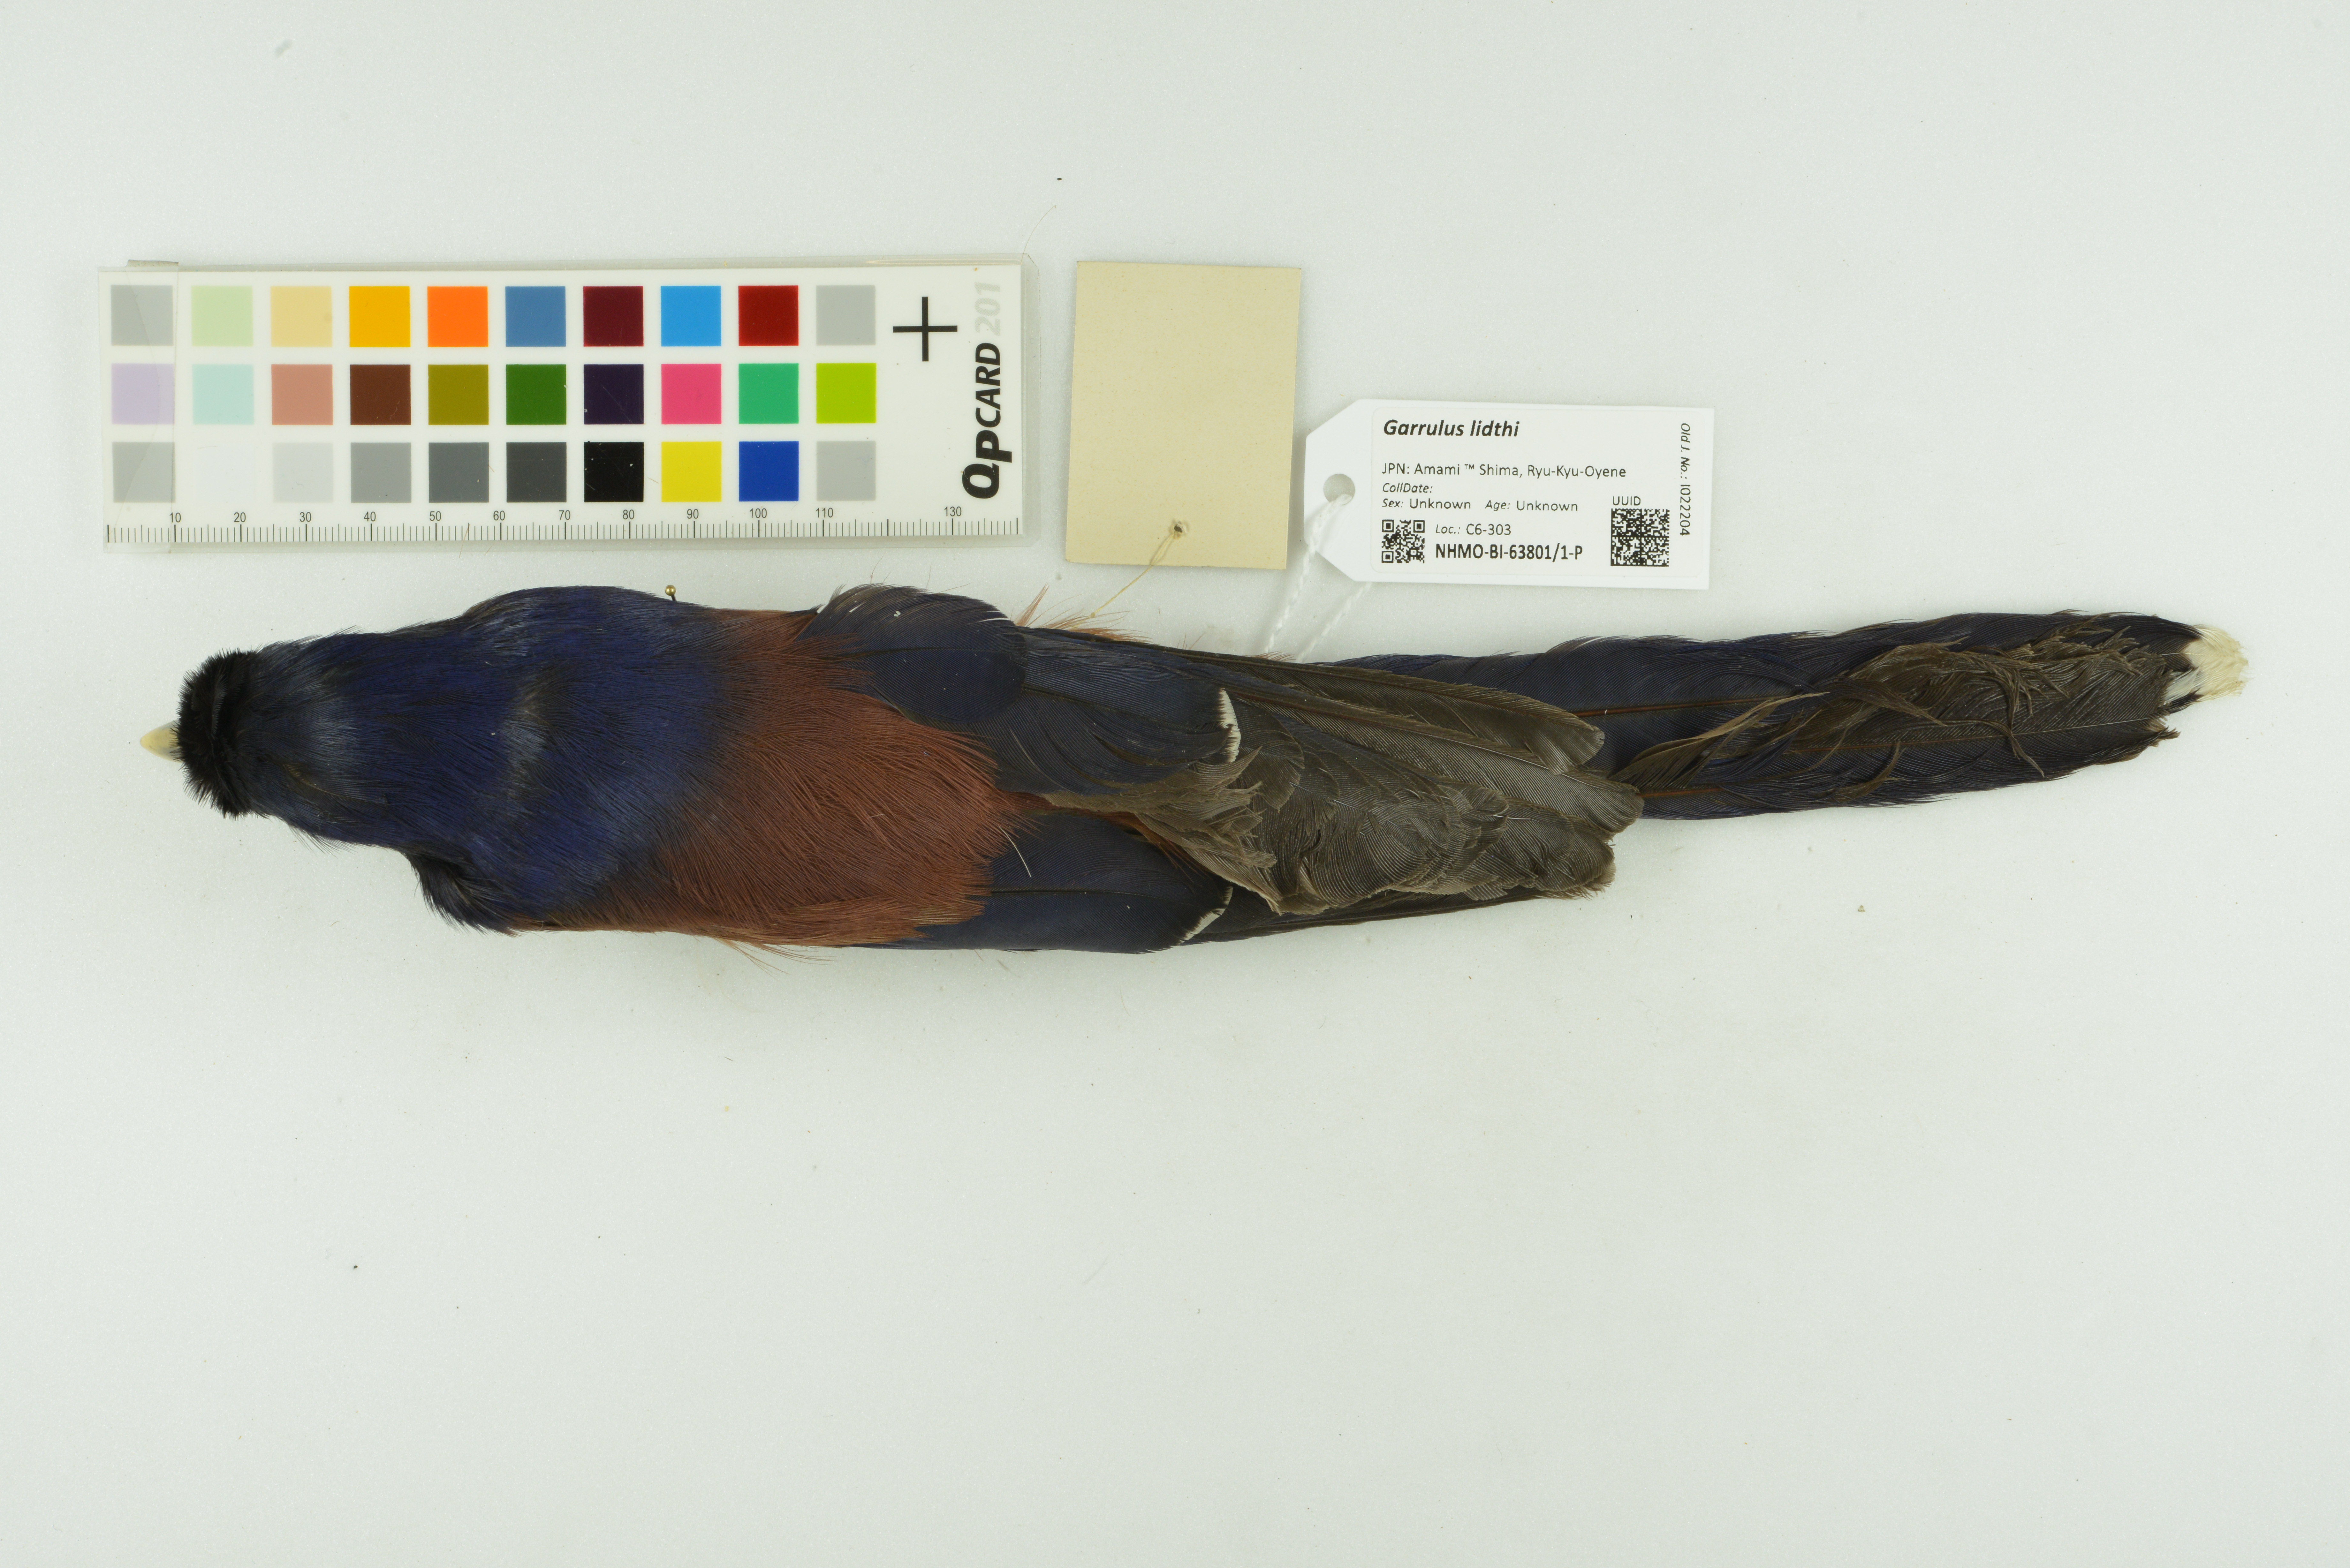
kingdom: Animalia
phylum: Chordata
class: Aves
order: Passeriformes
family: Corvidae
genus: Garrulus
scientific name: Garrulus lidthi
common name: Lidth's jay
